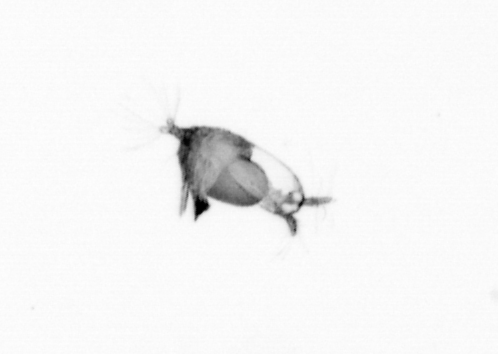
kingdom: Animalia
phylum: Arthropoda
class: Copepoda
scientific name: Copepoda
